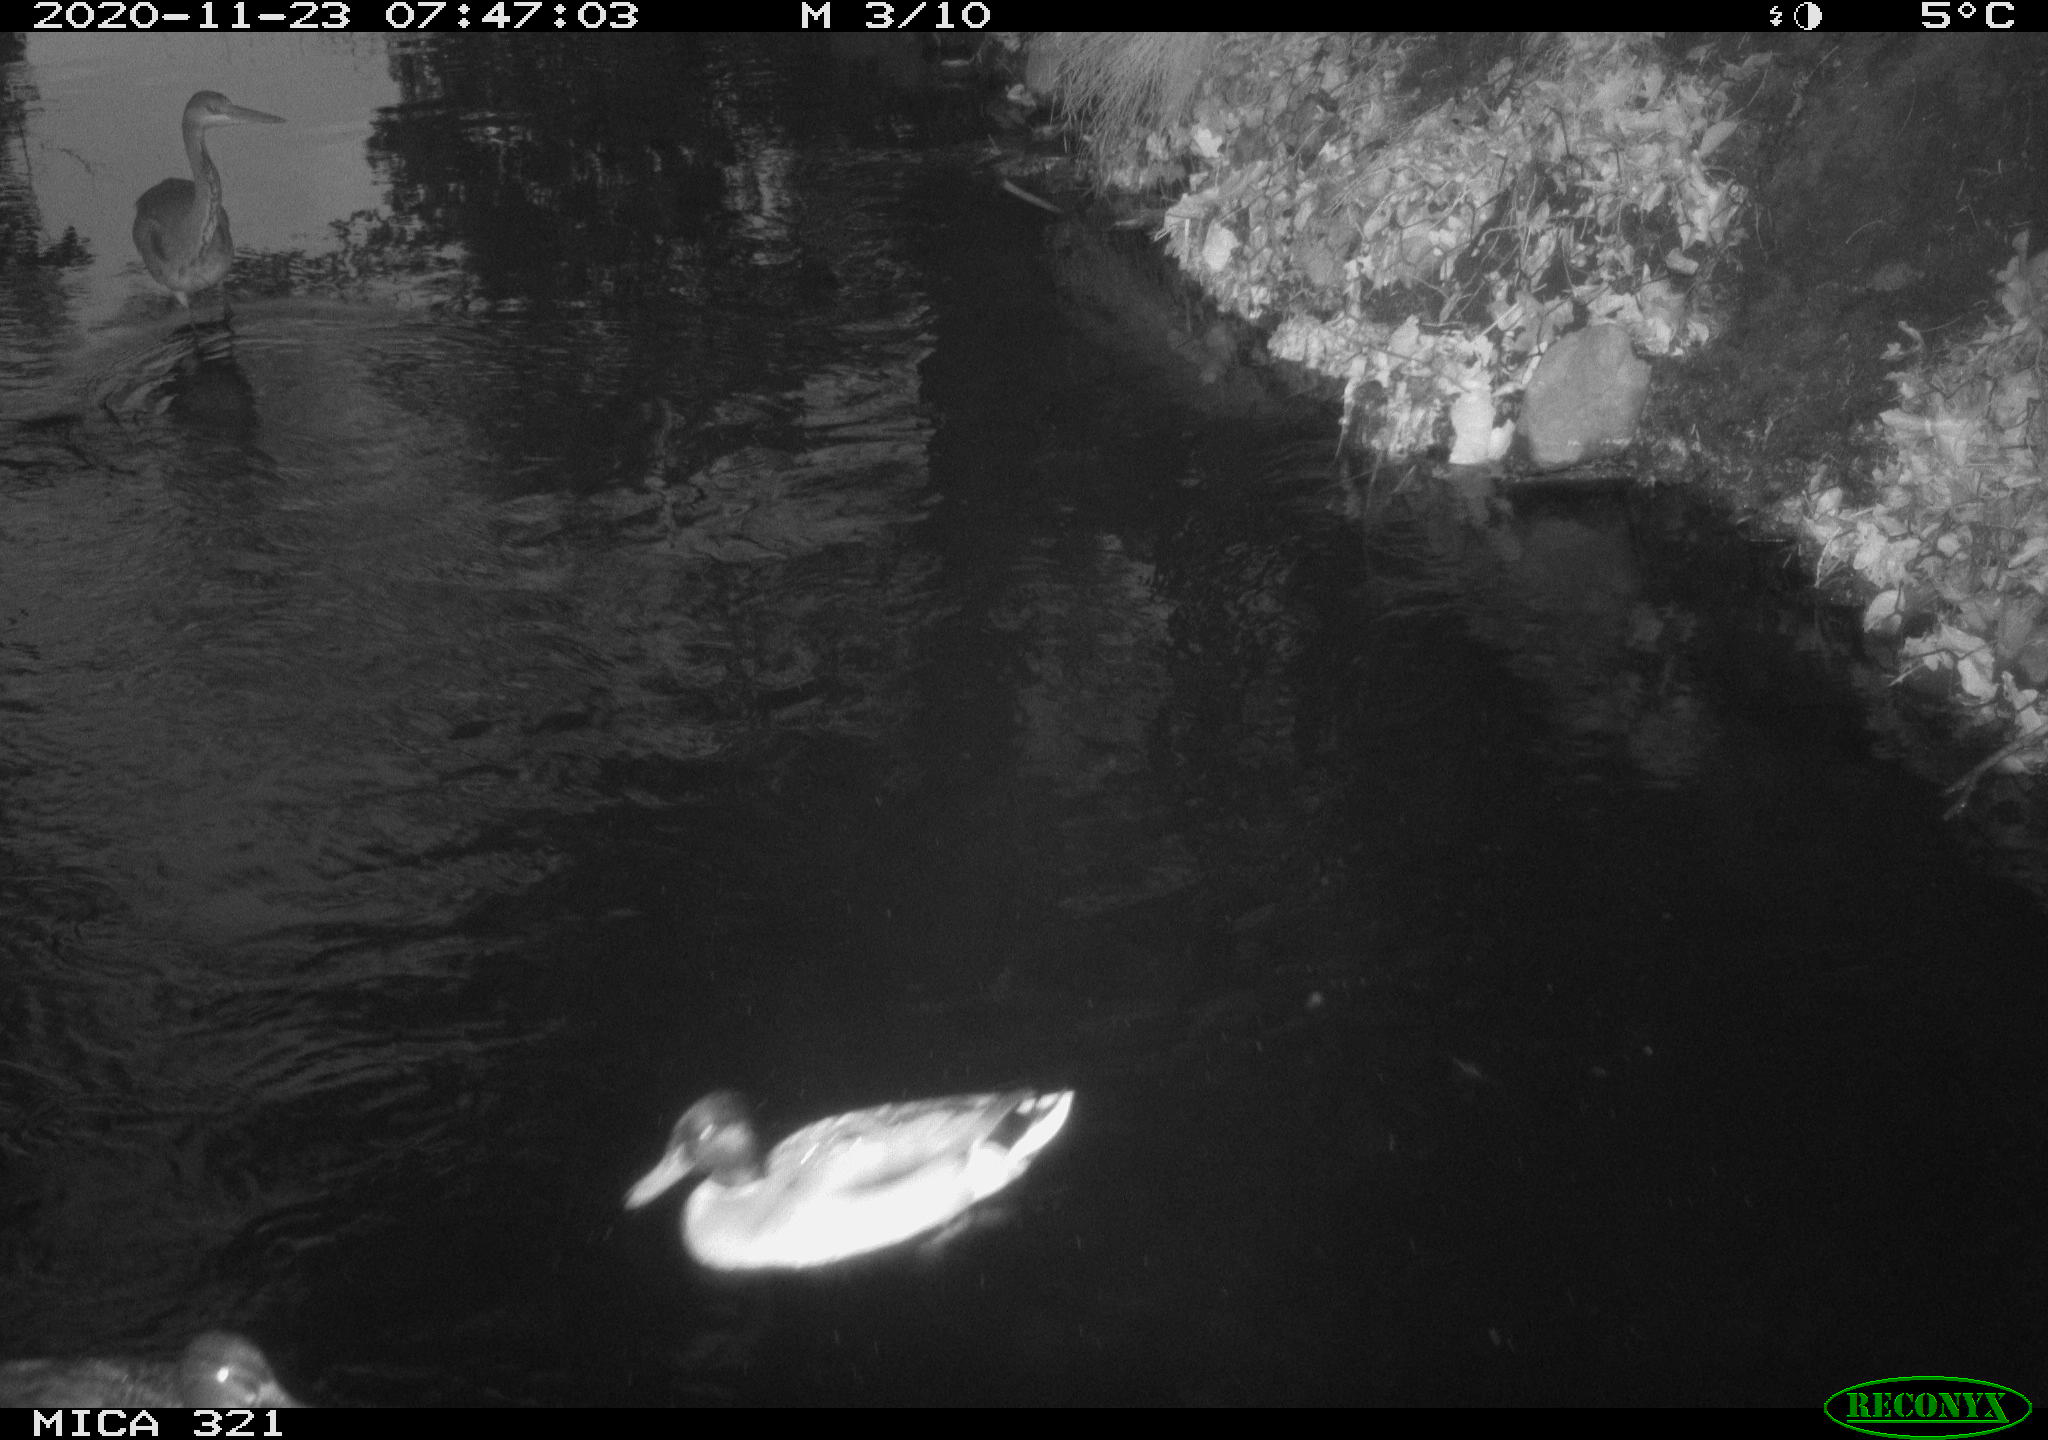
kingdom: Animalia
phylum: Chordata
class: Aves
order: Anseriformes
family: Anatidae
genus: Anas
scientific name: Anas platyrhynchos
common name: Mallard
